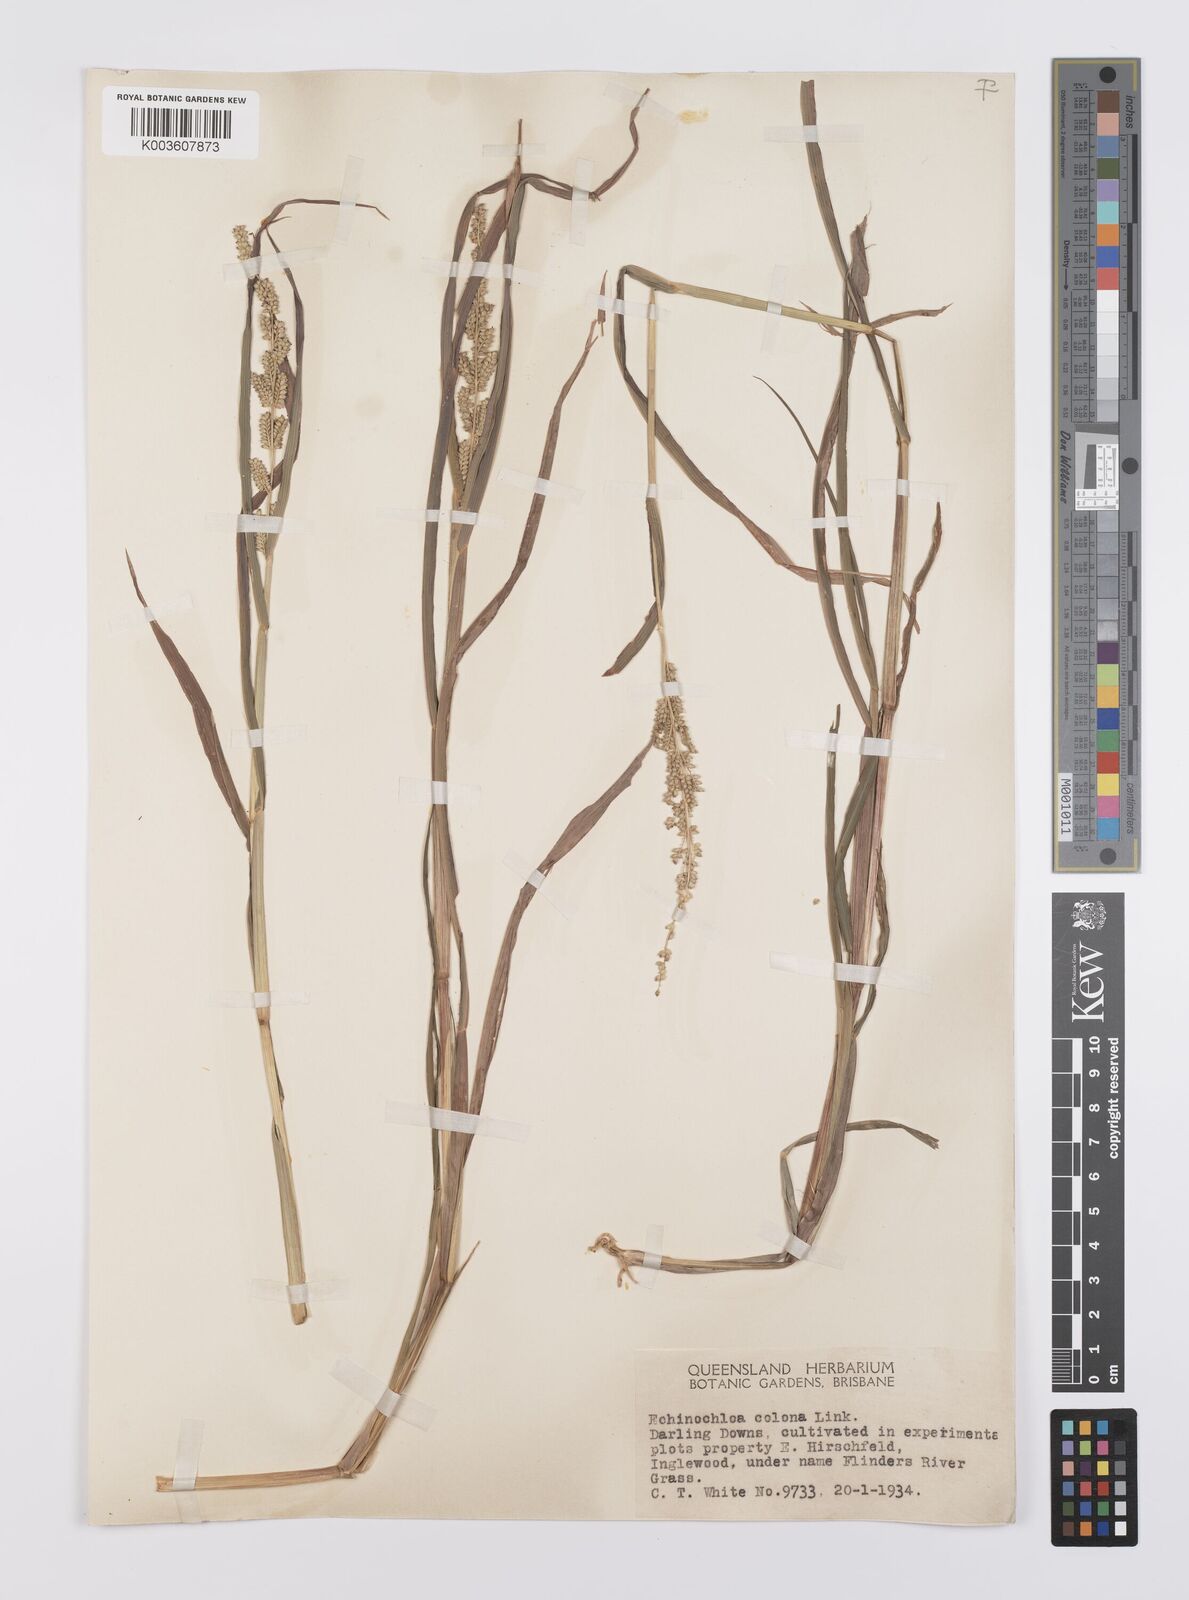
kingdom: Plantae
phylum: Tracheophyta
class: Liliopsida
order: Poales
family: Poaceae
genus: Echinochloa
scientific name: Echinochloa colonum
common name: Jungle rice
